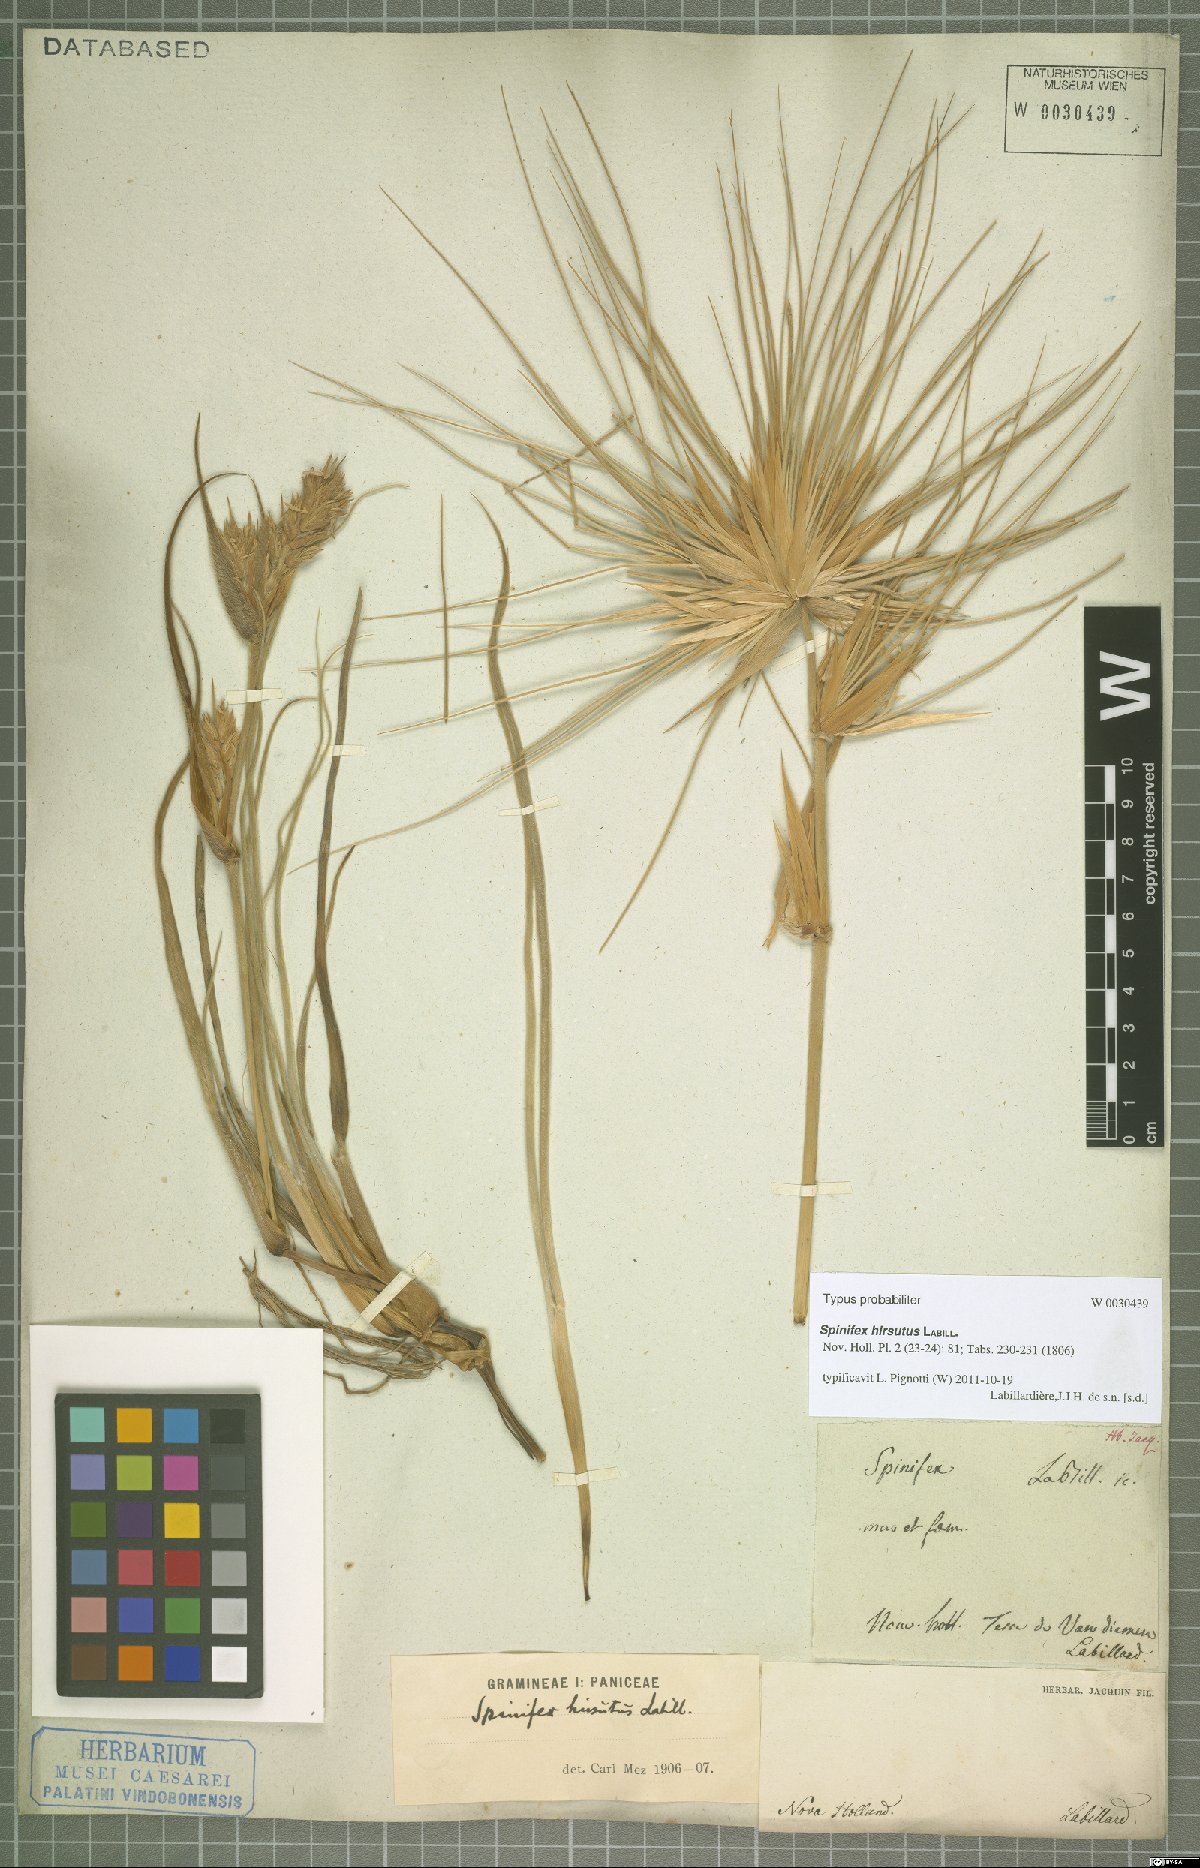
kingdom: Plantae
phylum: Tracheophyta
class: Liliopsida
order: Poales
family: Poaceae
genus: Spinifex
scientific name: Spinifex hirsutus
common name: Hairy spinifex
